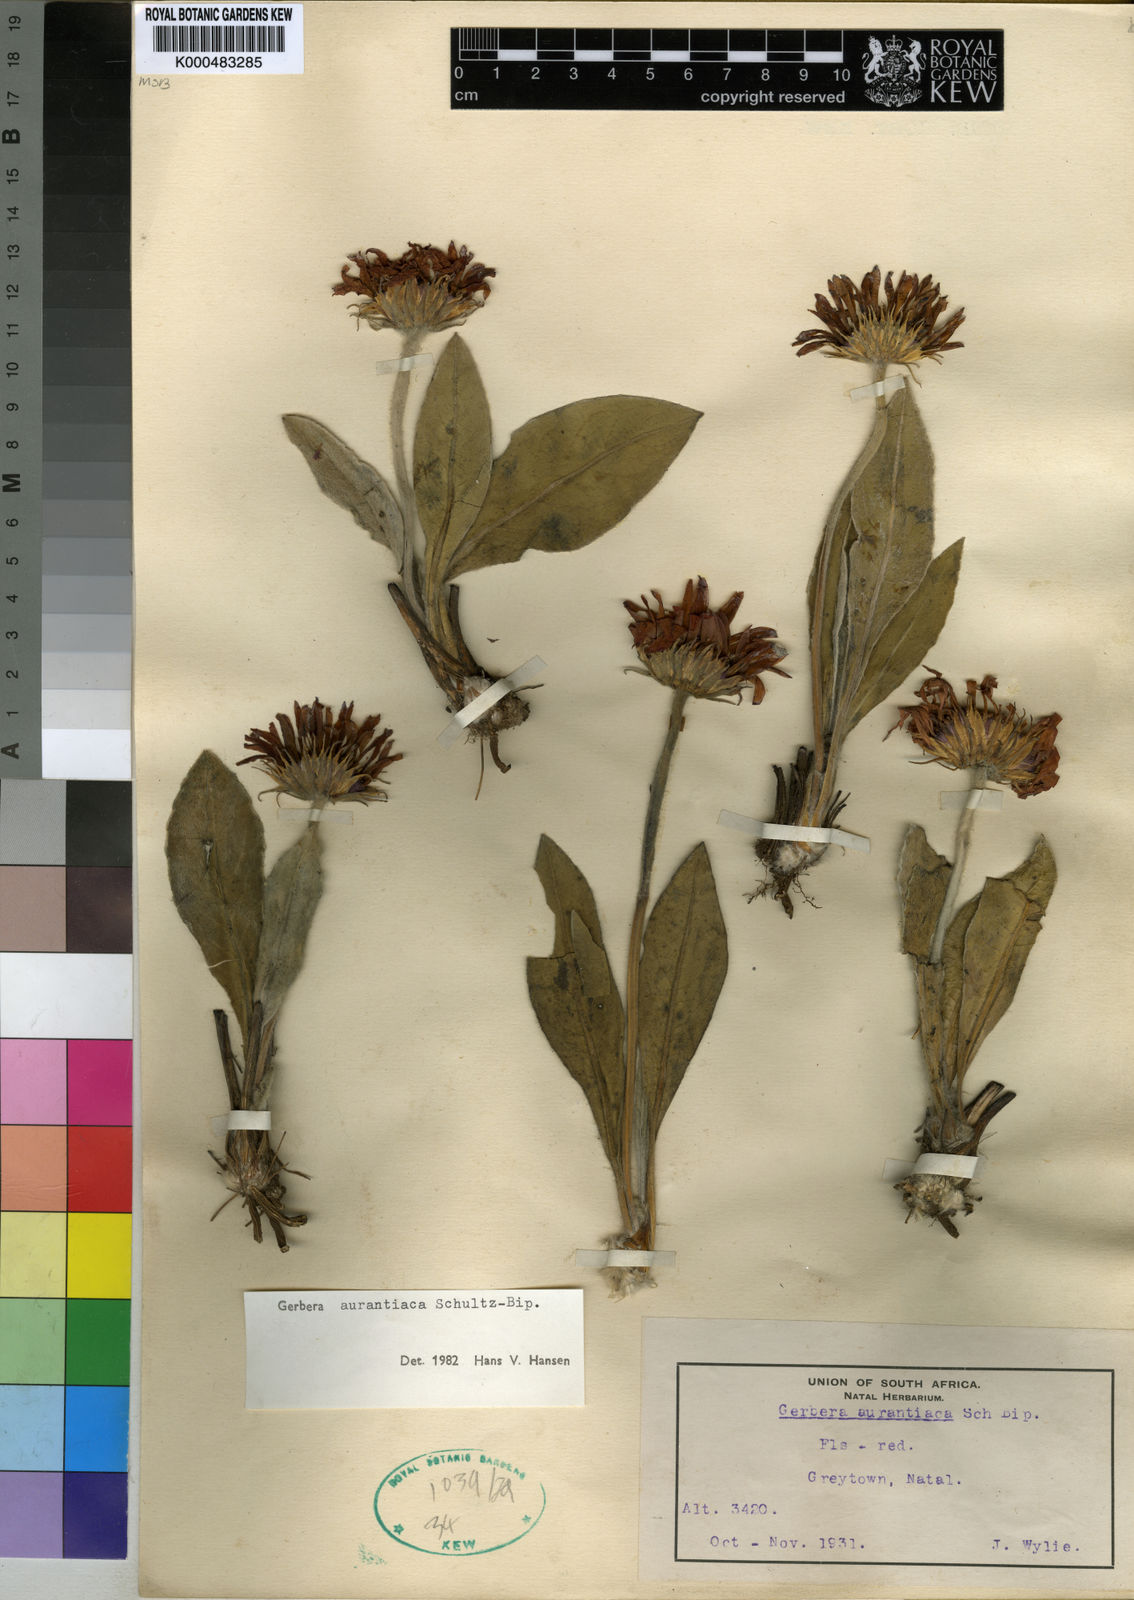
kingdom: Plantae
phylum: Tracheophyta
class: Magnoliopsida
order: Asterales
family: Asteraceae
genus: Gerbera
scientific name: Gerbera aurantiaca
